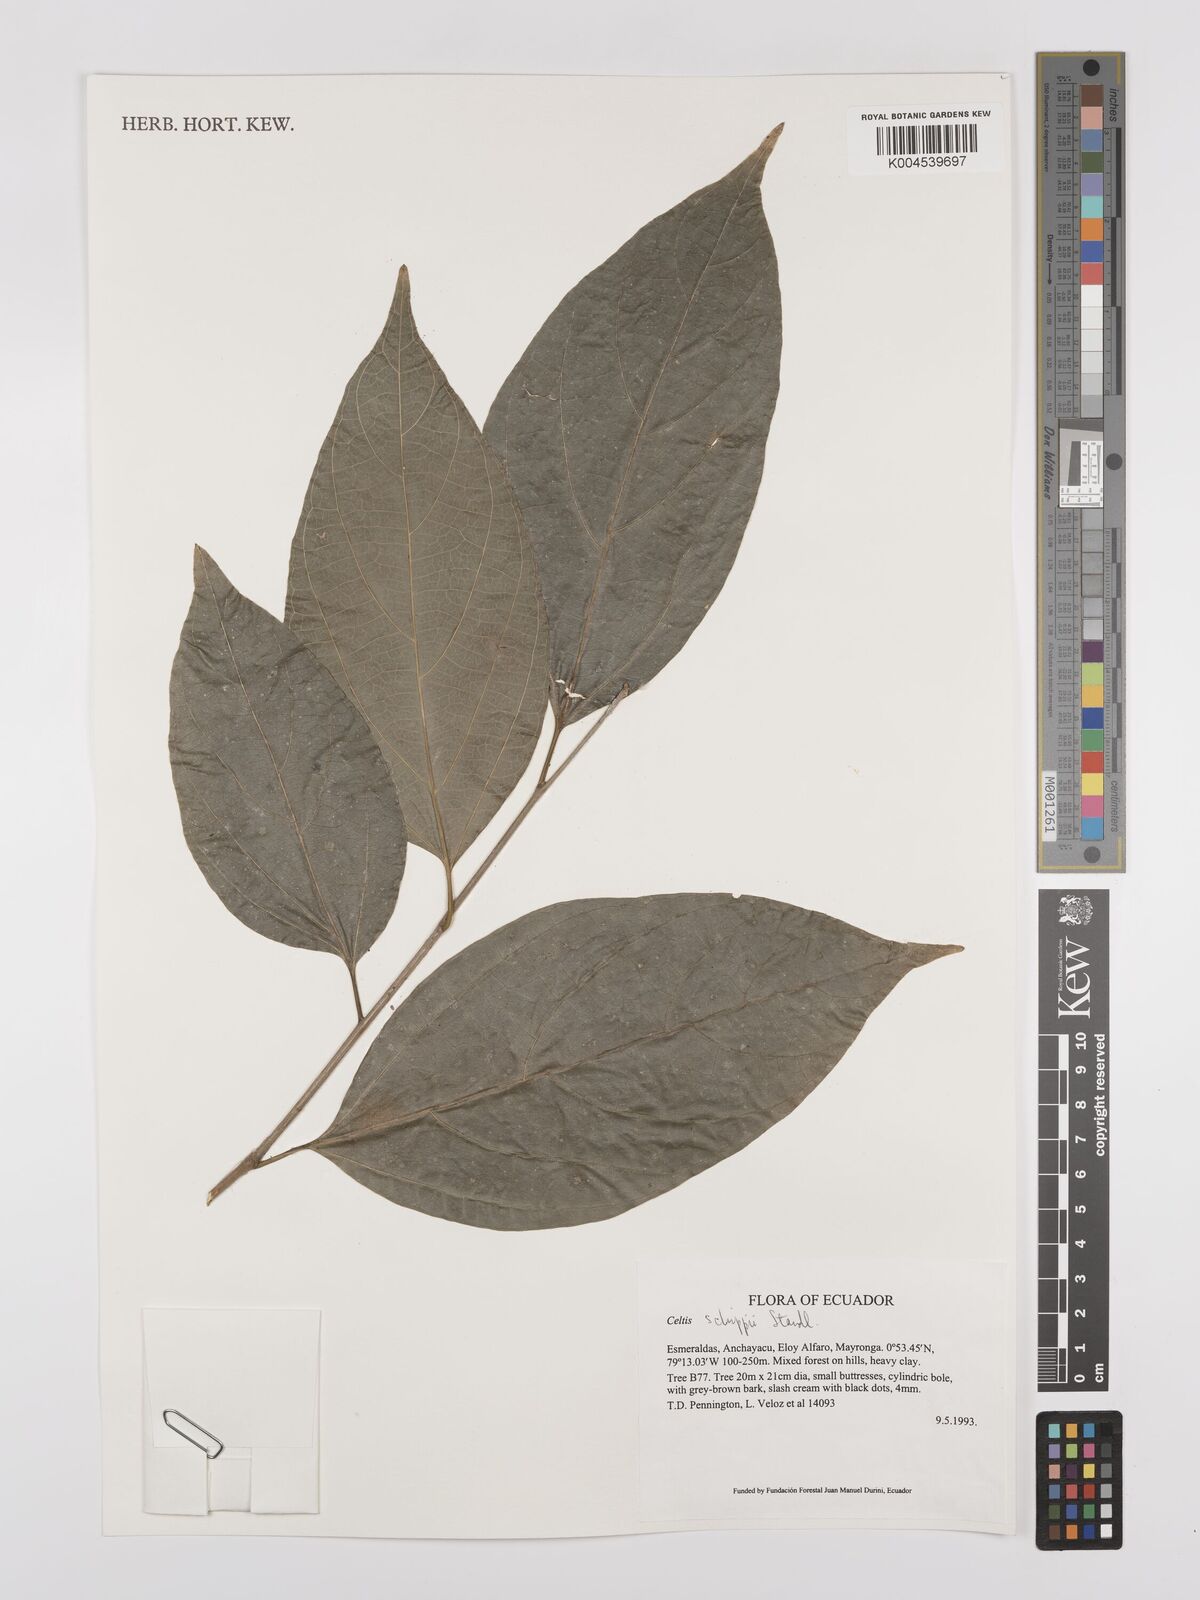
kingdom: Plantae
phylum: Tracheophyta
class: Magnoliopsida
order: Rosales
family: Cannabaceae
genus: Celtis
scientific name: Celtis schippii
